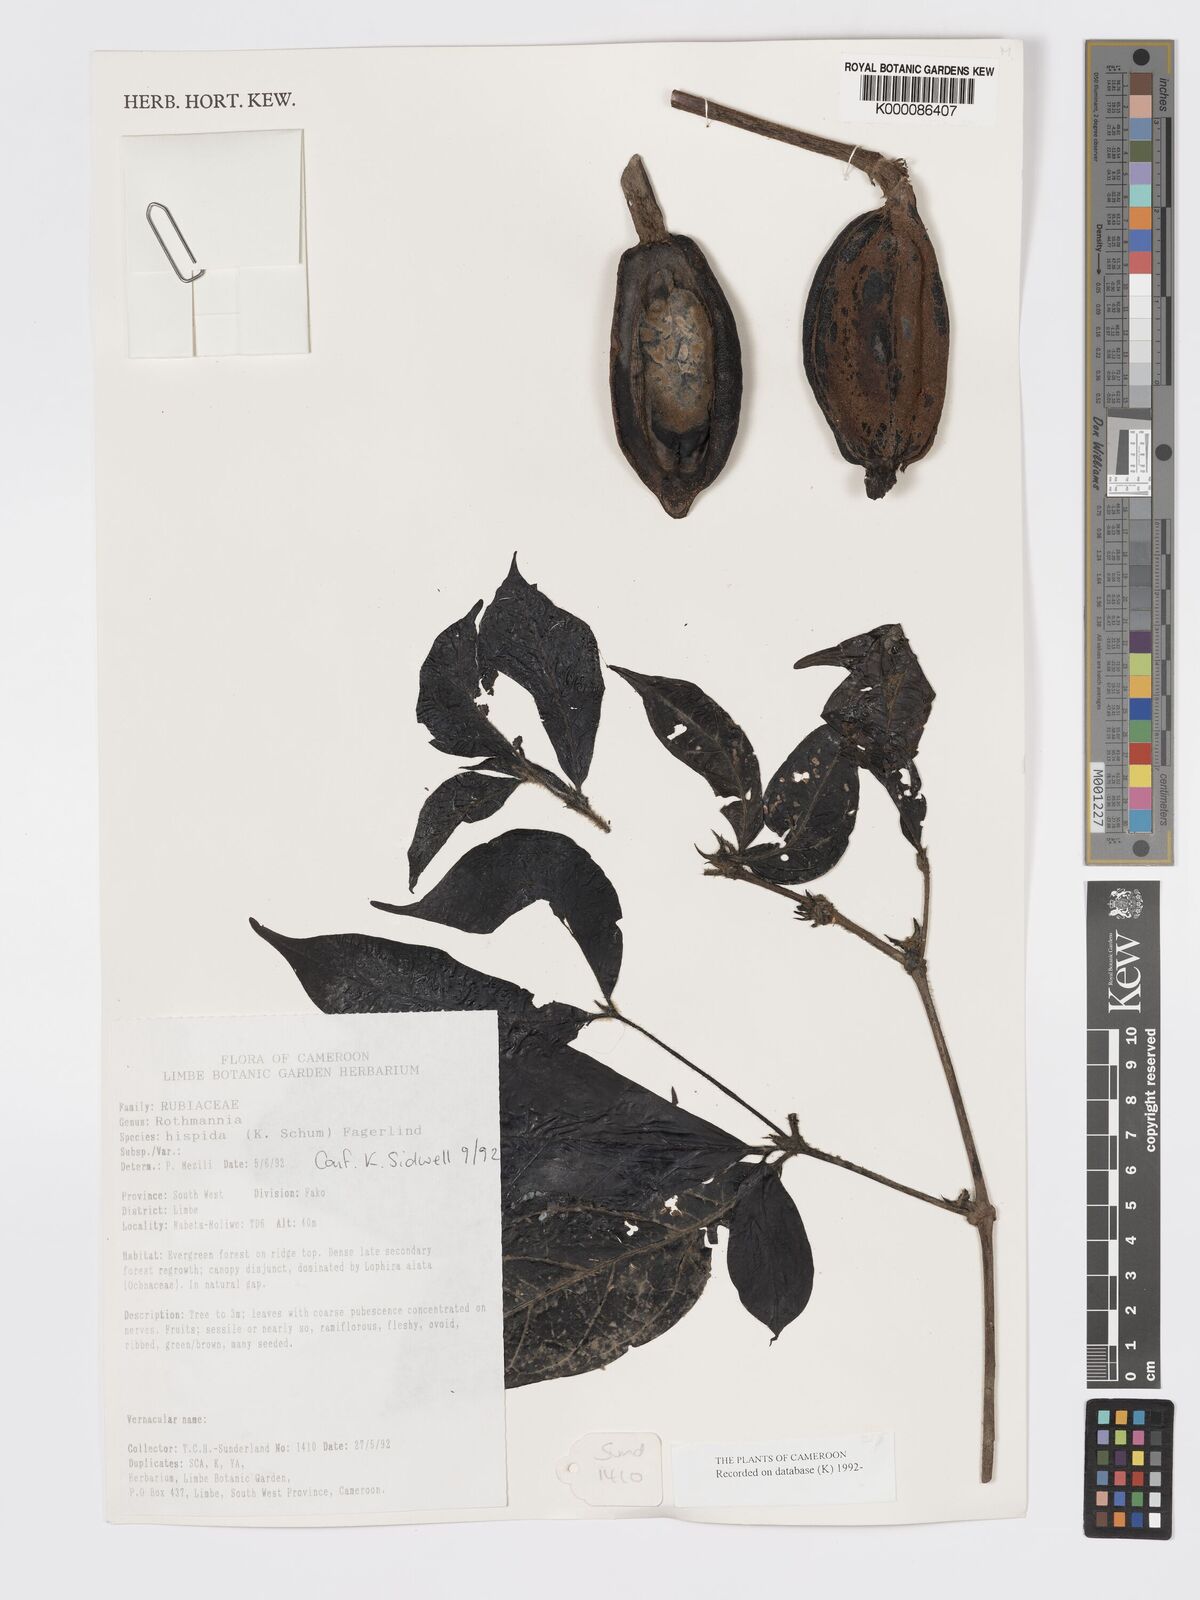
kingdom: Plantae
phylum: Tracheophyta
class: Magnoliopsida
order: Gentianales
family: Rubiaceae
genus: Rothmannia
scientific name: Rothmannia hispida
